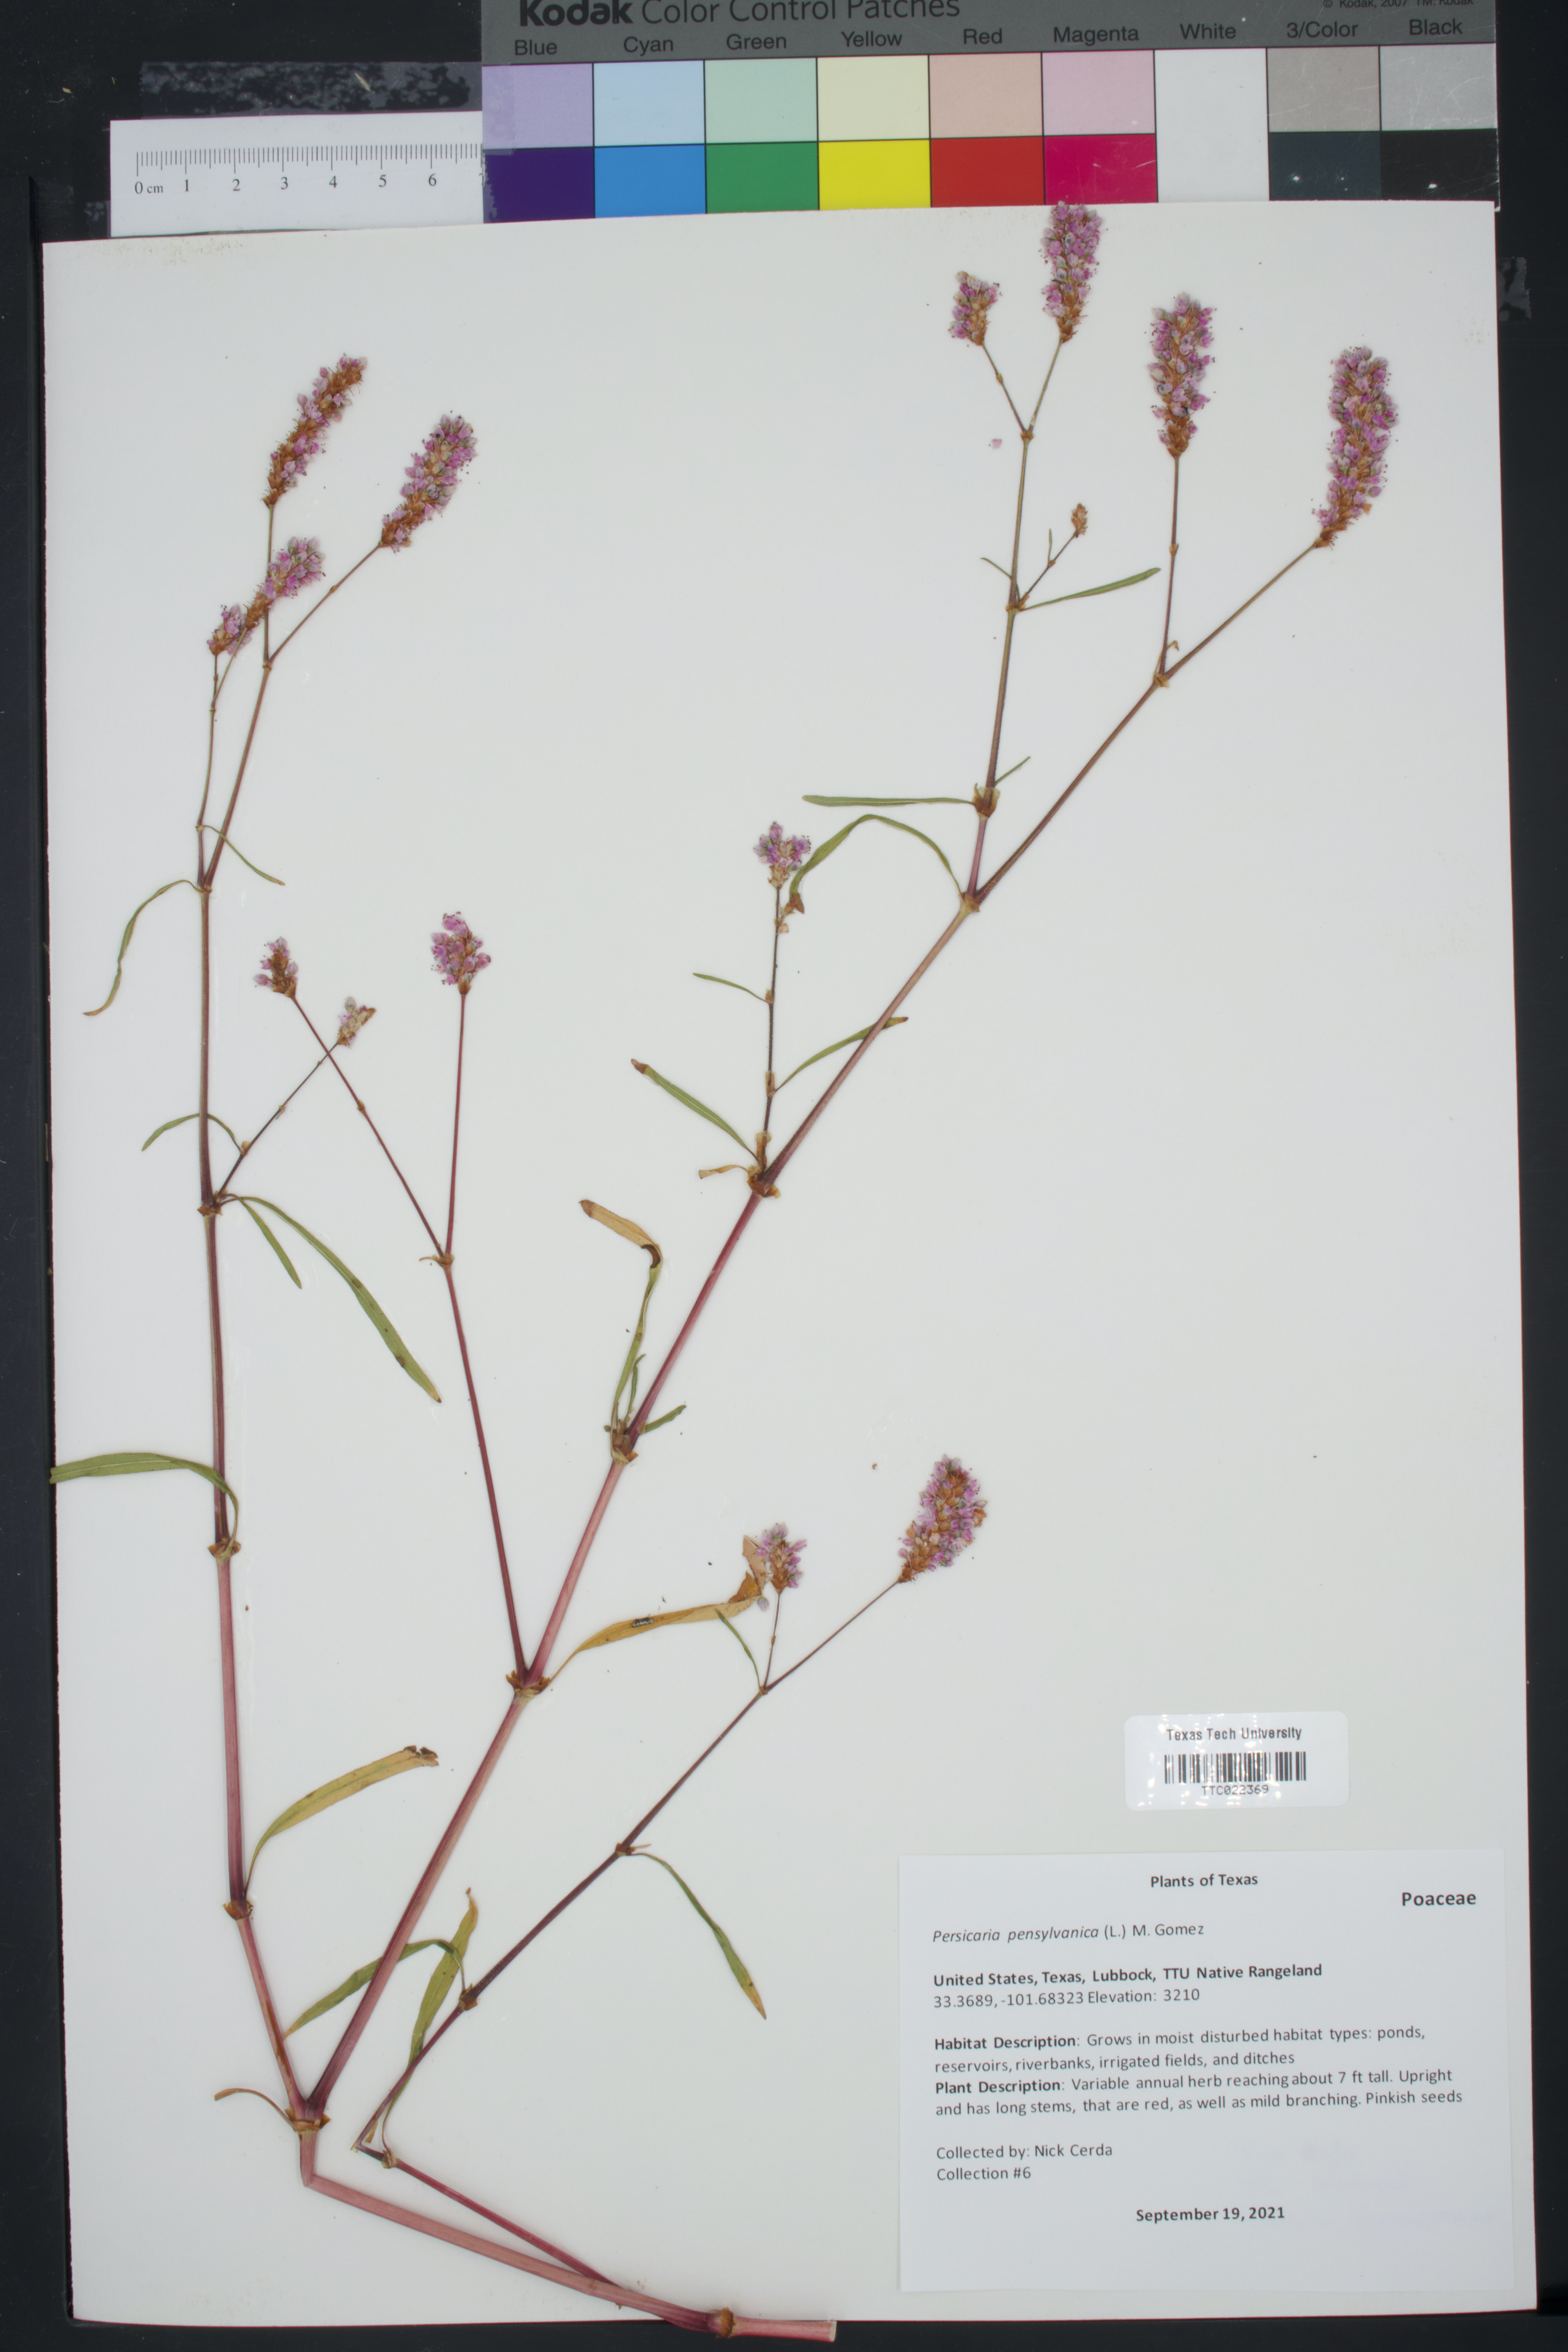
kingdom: Plantae
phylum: Tracheophyta
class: Magnoliopsida
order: Caryophyllales
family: Polygonaceae
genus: Persicaria
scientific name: Persicaria pensylvanica
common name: Pinkweed
